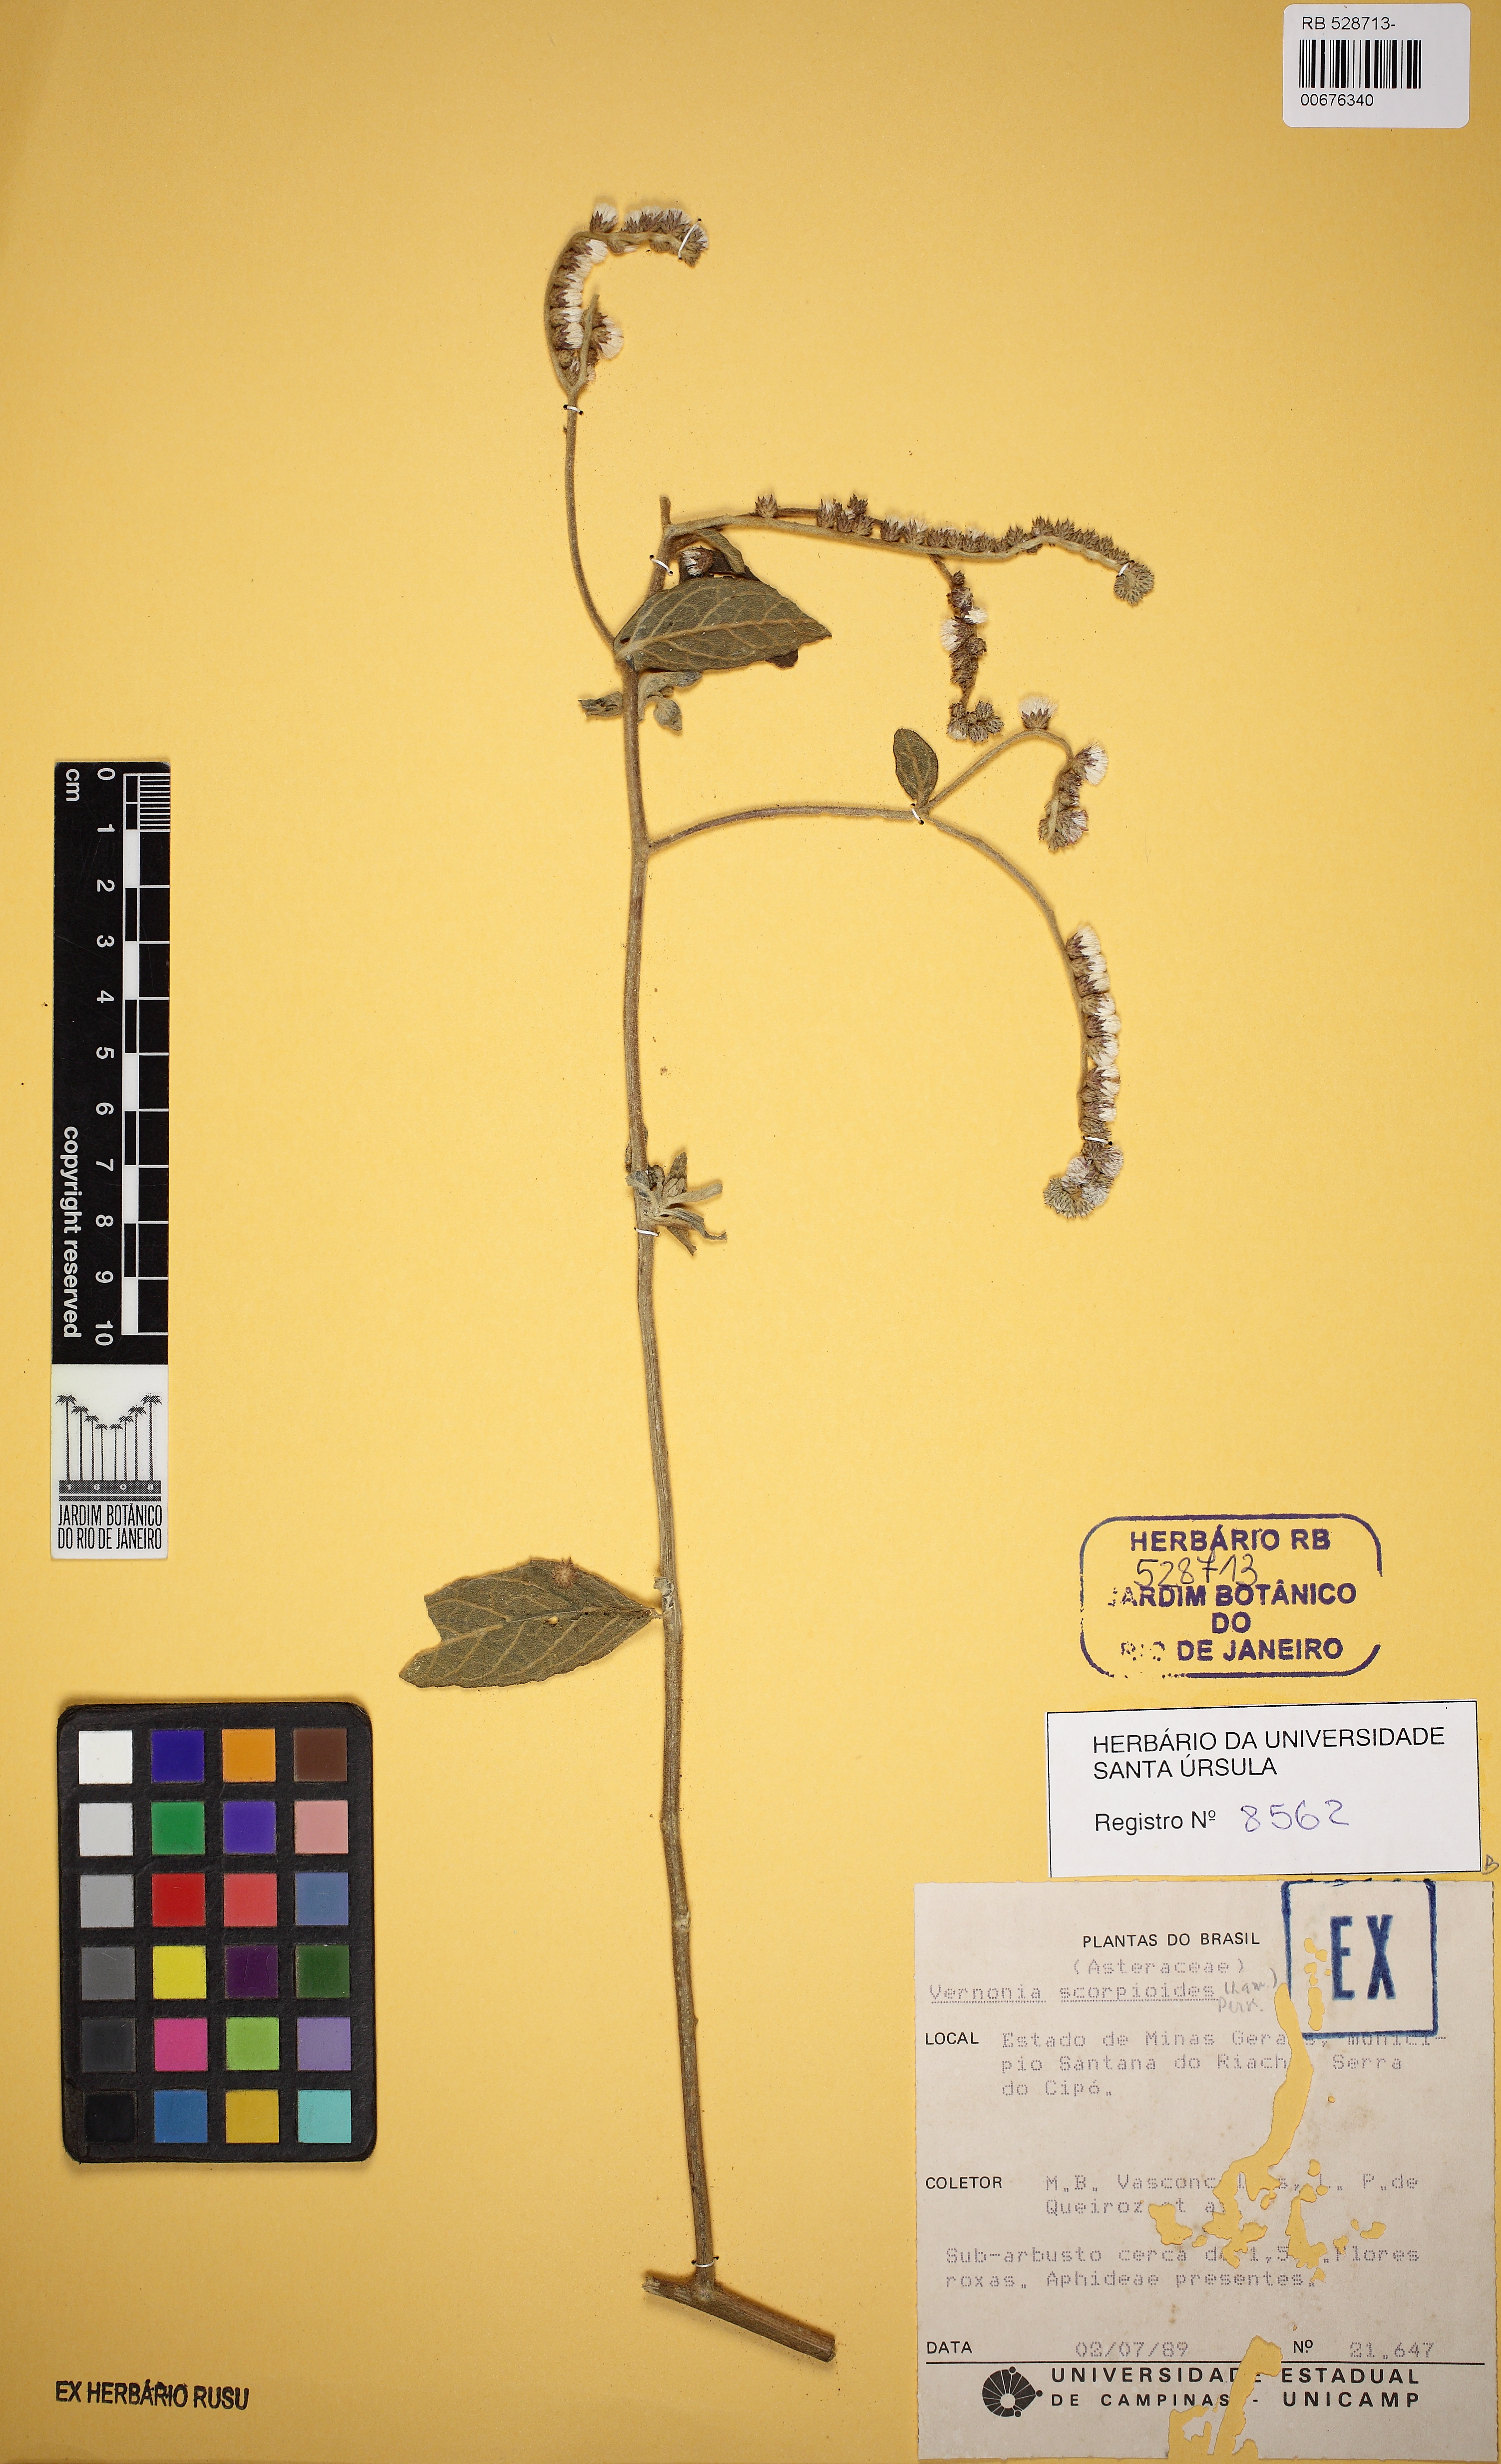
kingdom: Plantae
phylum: Tracheophyta
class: Magnoliopsida
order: Asterales
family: Asteraceae
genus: Cyrtocymura
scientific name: Cyrtocymura scorpioides
